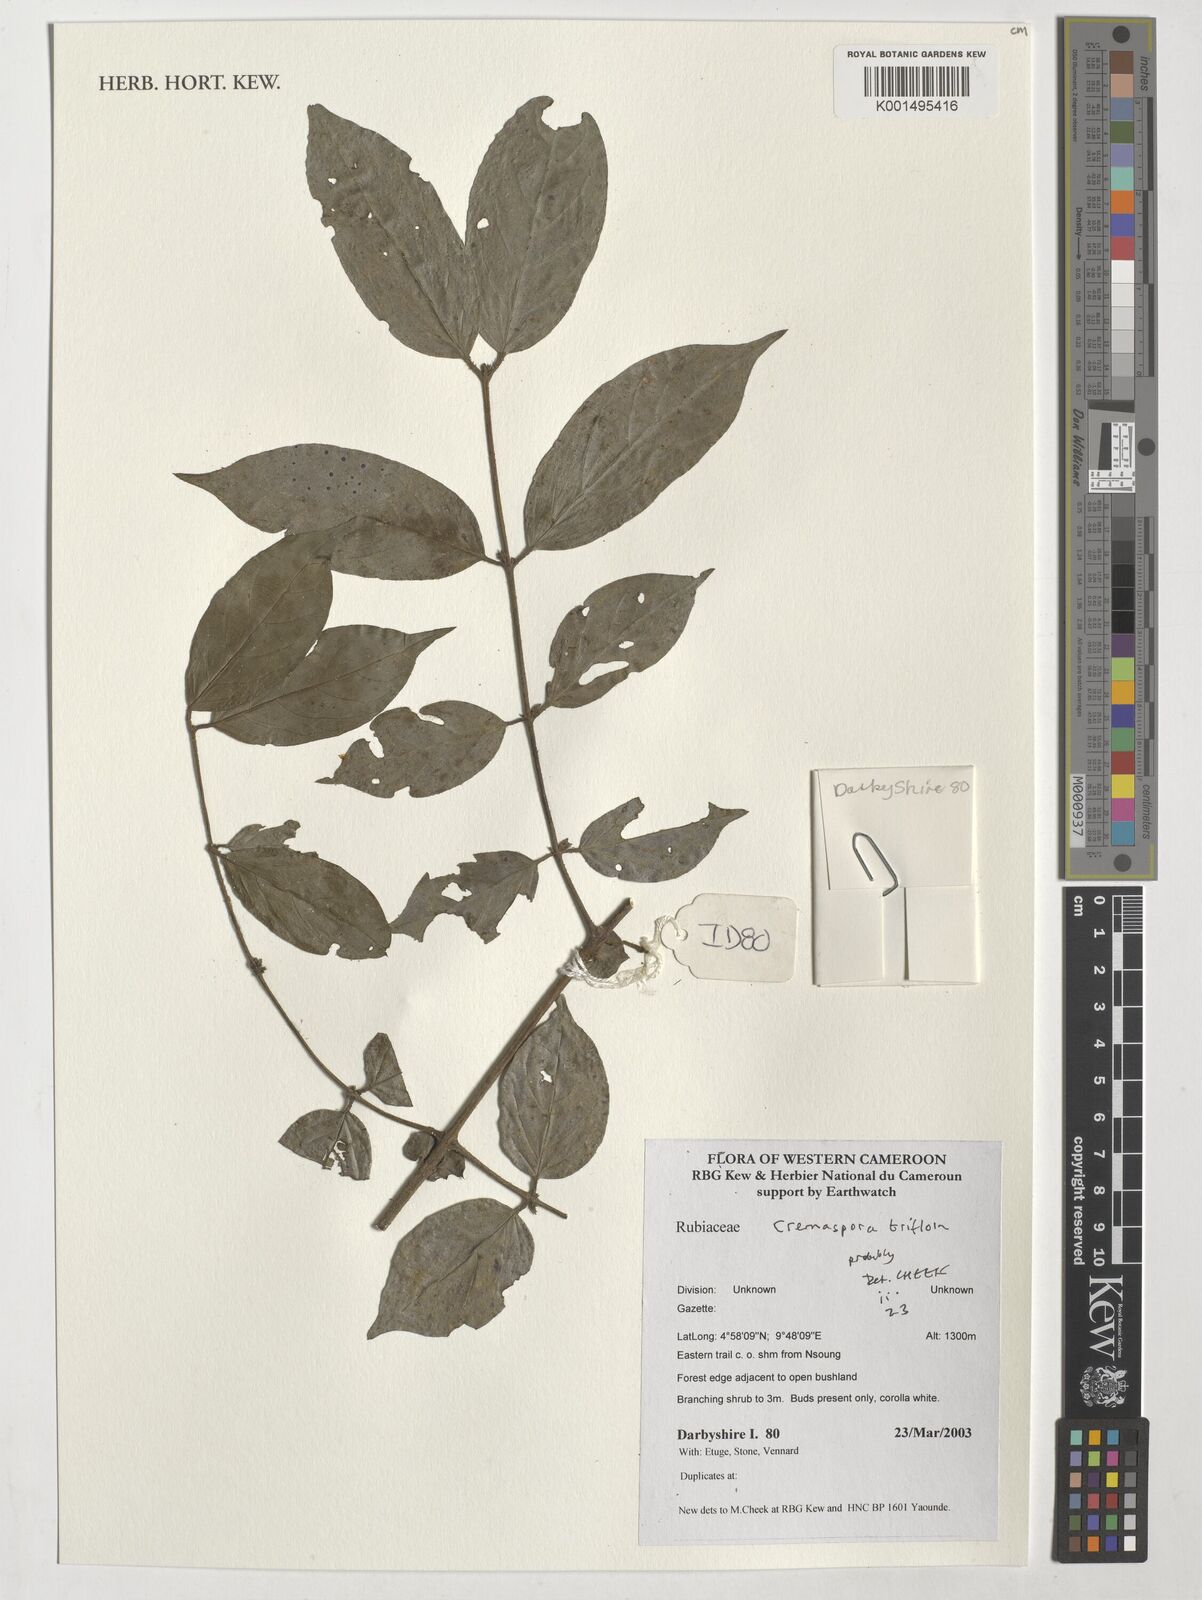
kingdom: Plantae
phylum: Tracheophyta
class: Magnoliopsida
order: Gentianales
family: Rubiaceae
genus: Cremaspora
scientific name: Cremaspora triflora
